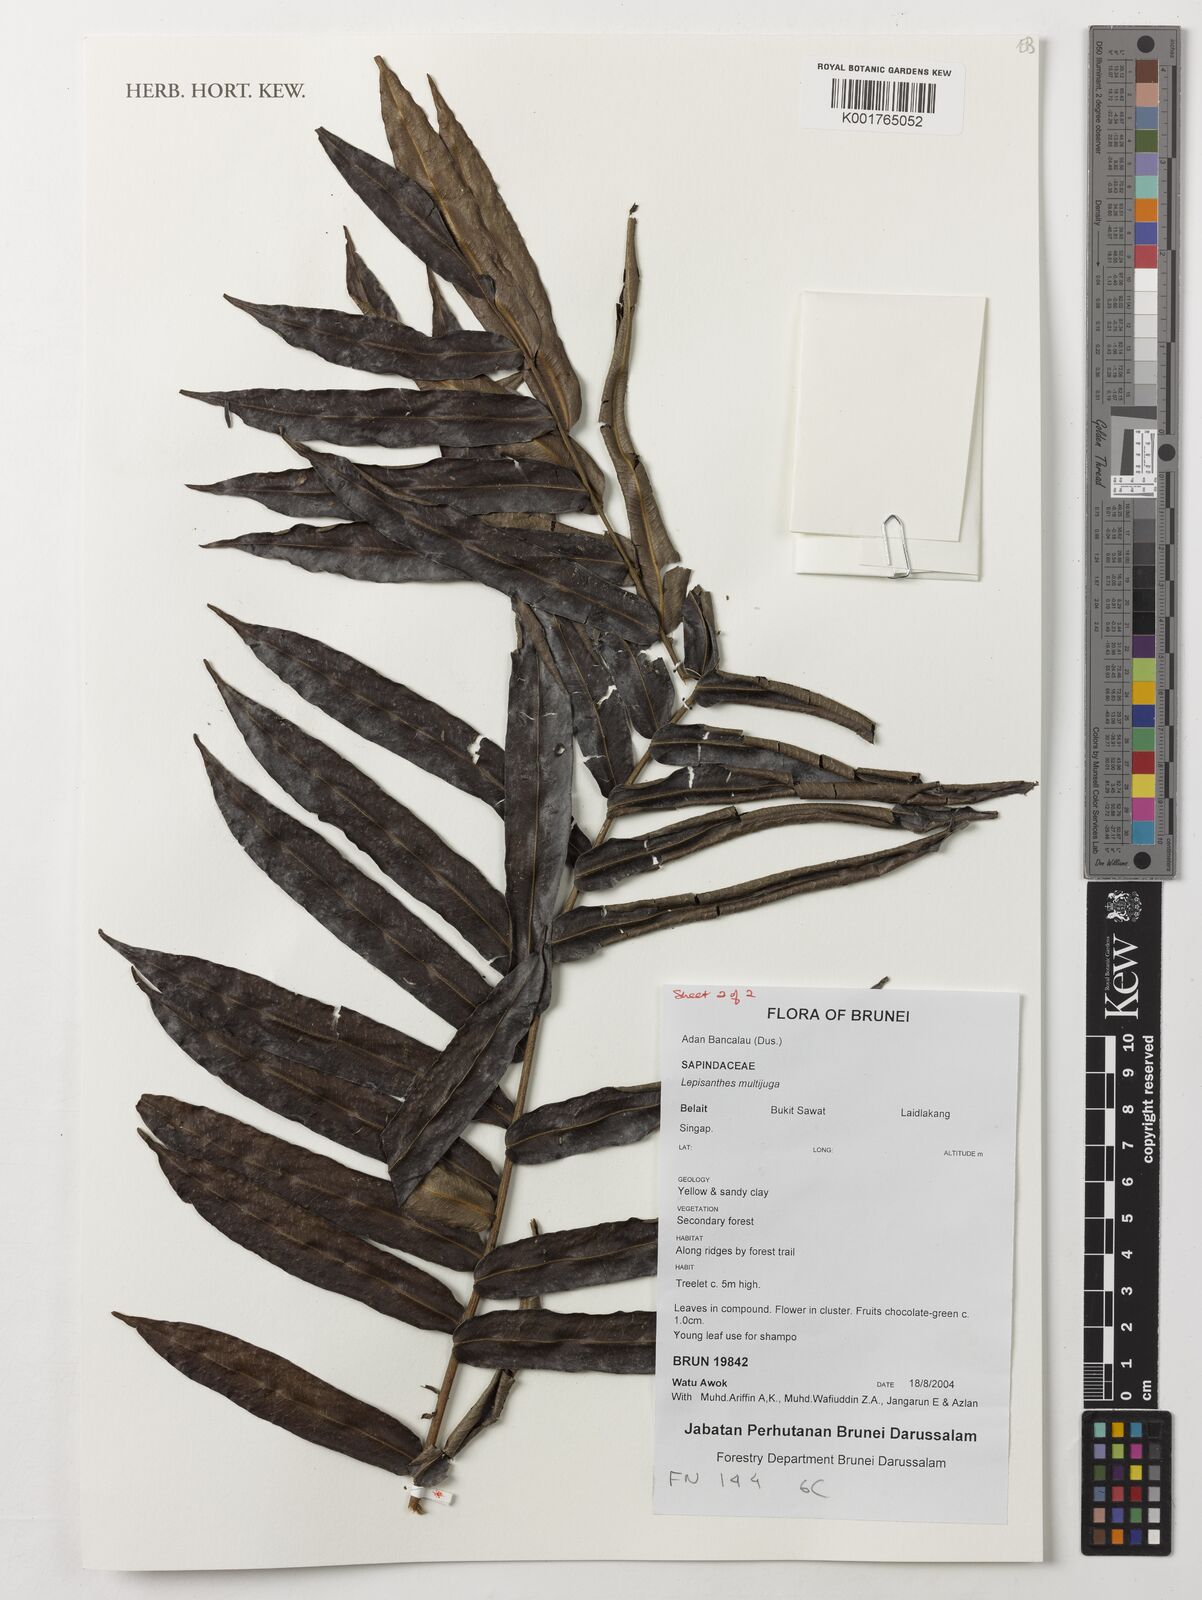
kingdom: Plantae
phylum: Tracheophyta
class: Magnoliopsida
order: Sapindales
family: Sapindaceae
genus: Lepisanthes
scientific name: Lepisanthes multijuga
